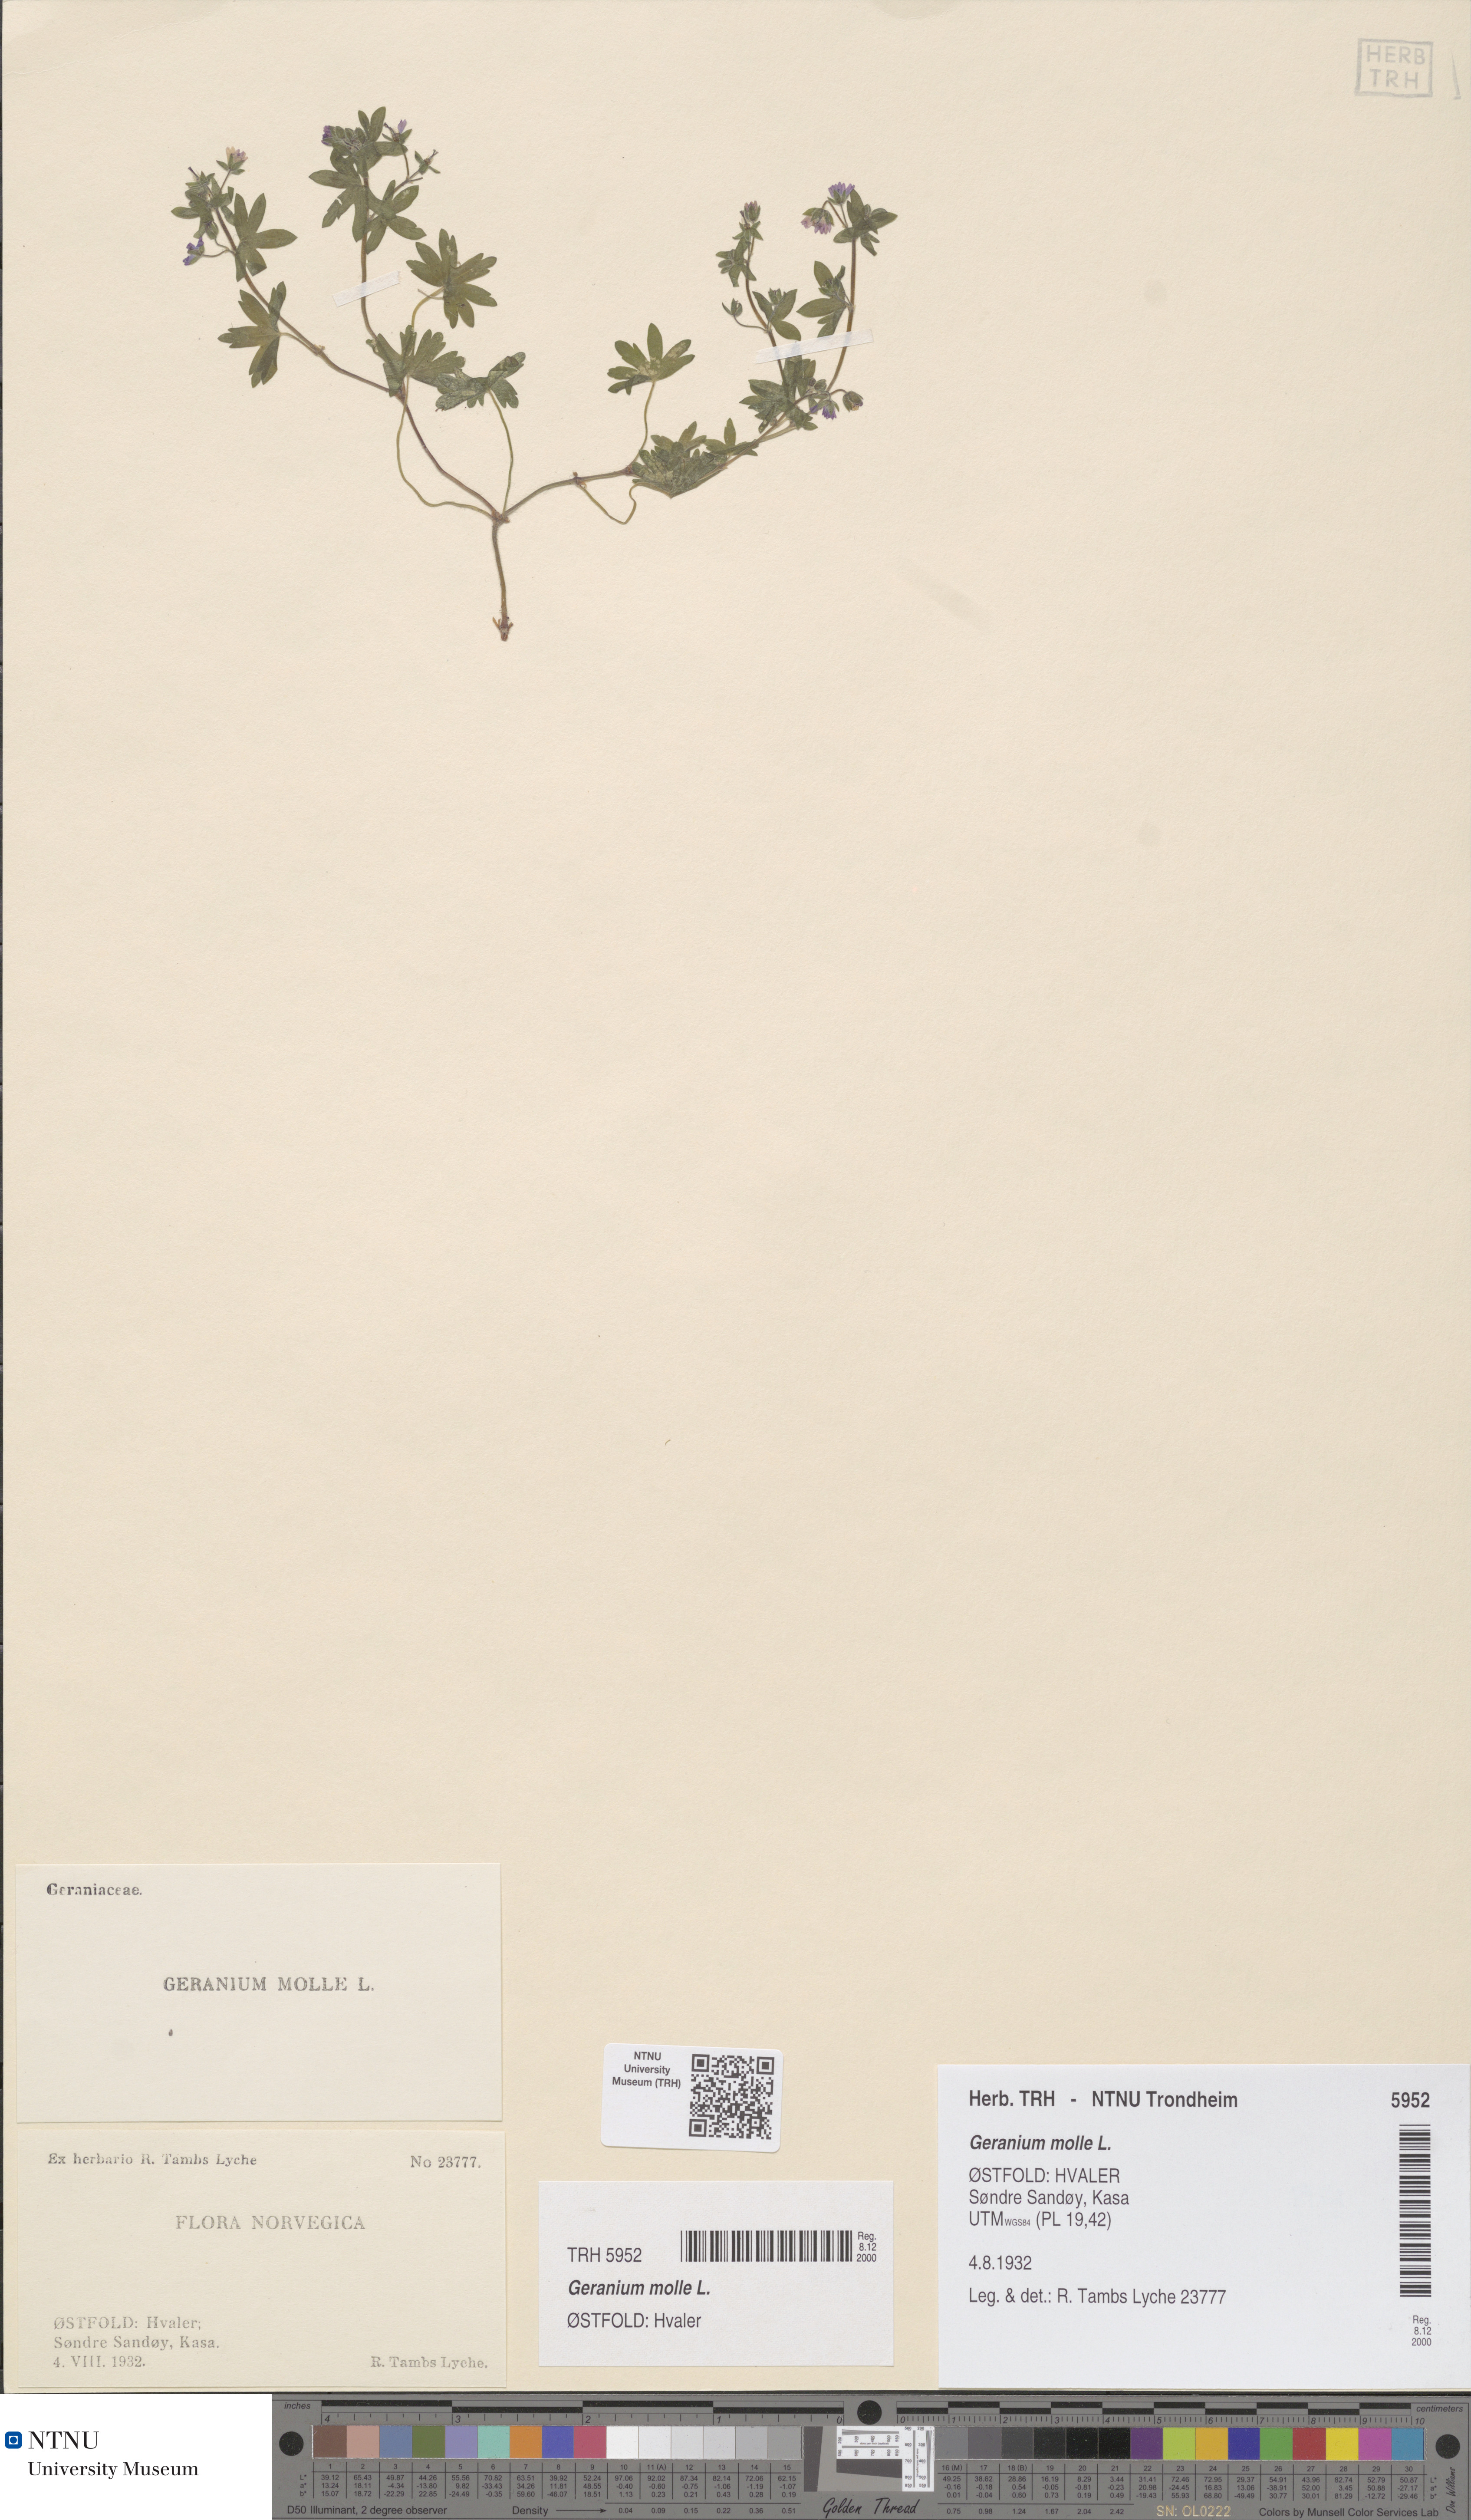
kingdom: Plantae
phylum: Tracheophyta
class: Magnoliopsida
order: Geraniales
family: Geraniaceae
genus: Geranium
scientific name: Geranium molle
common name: Dove's-foot crane's-bill
